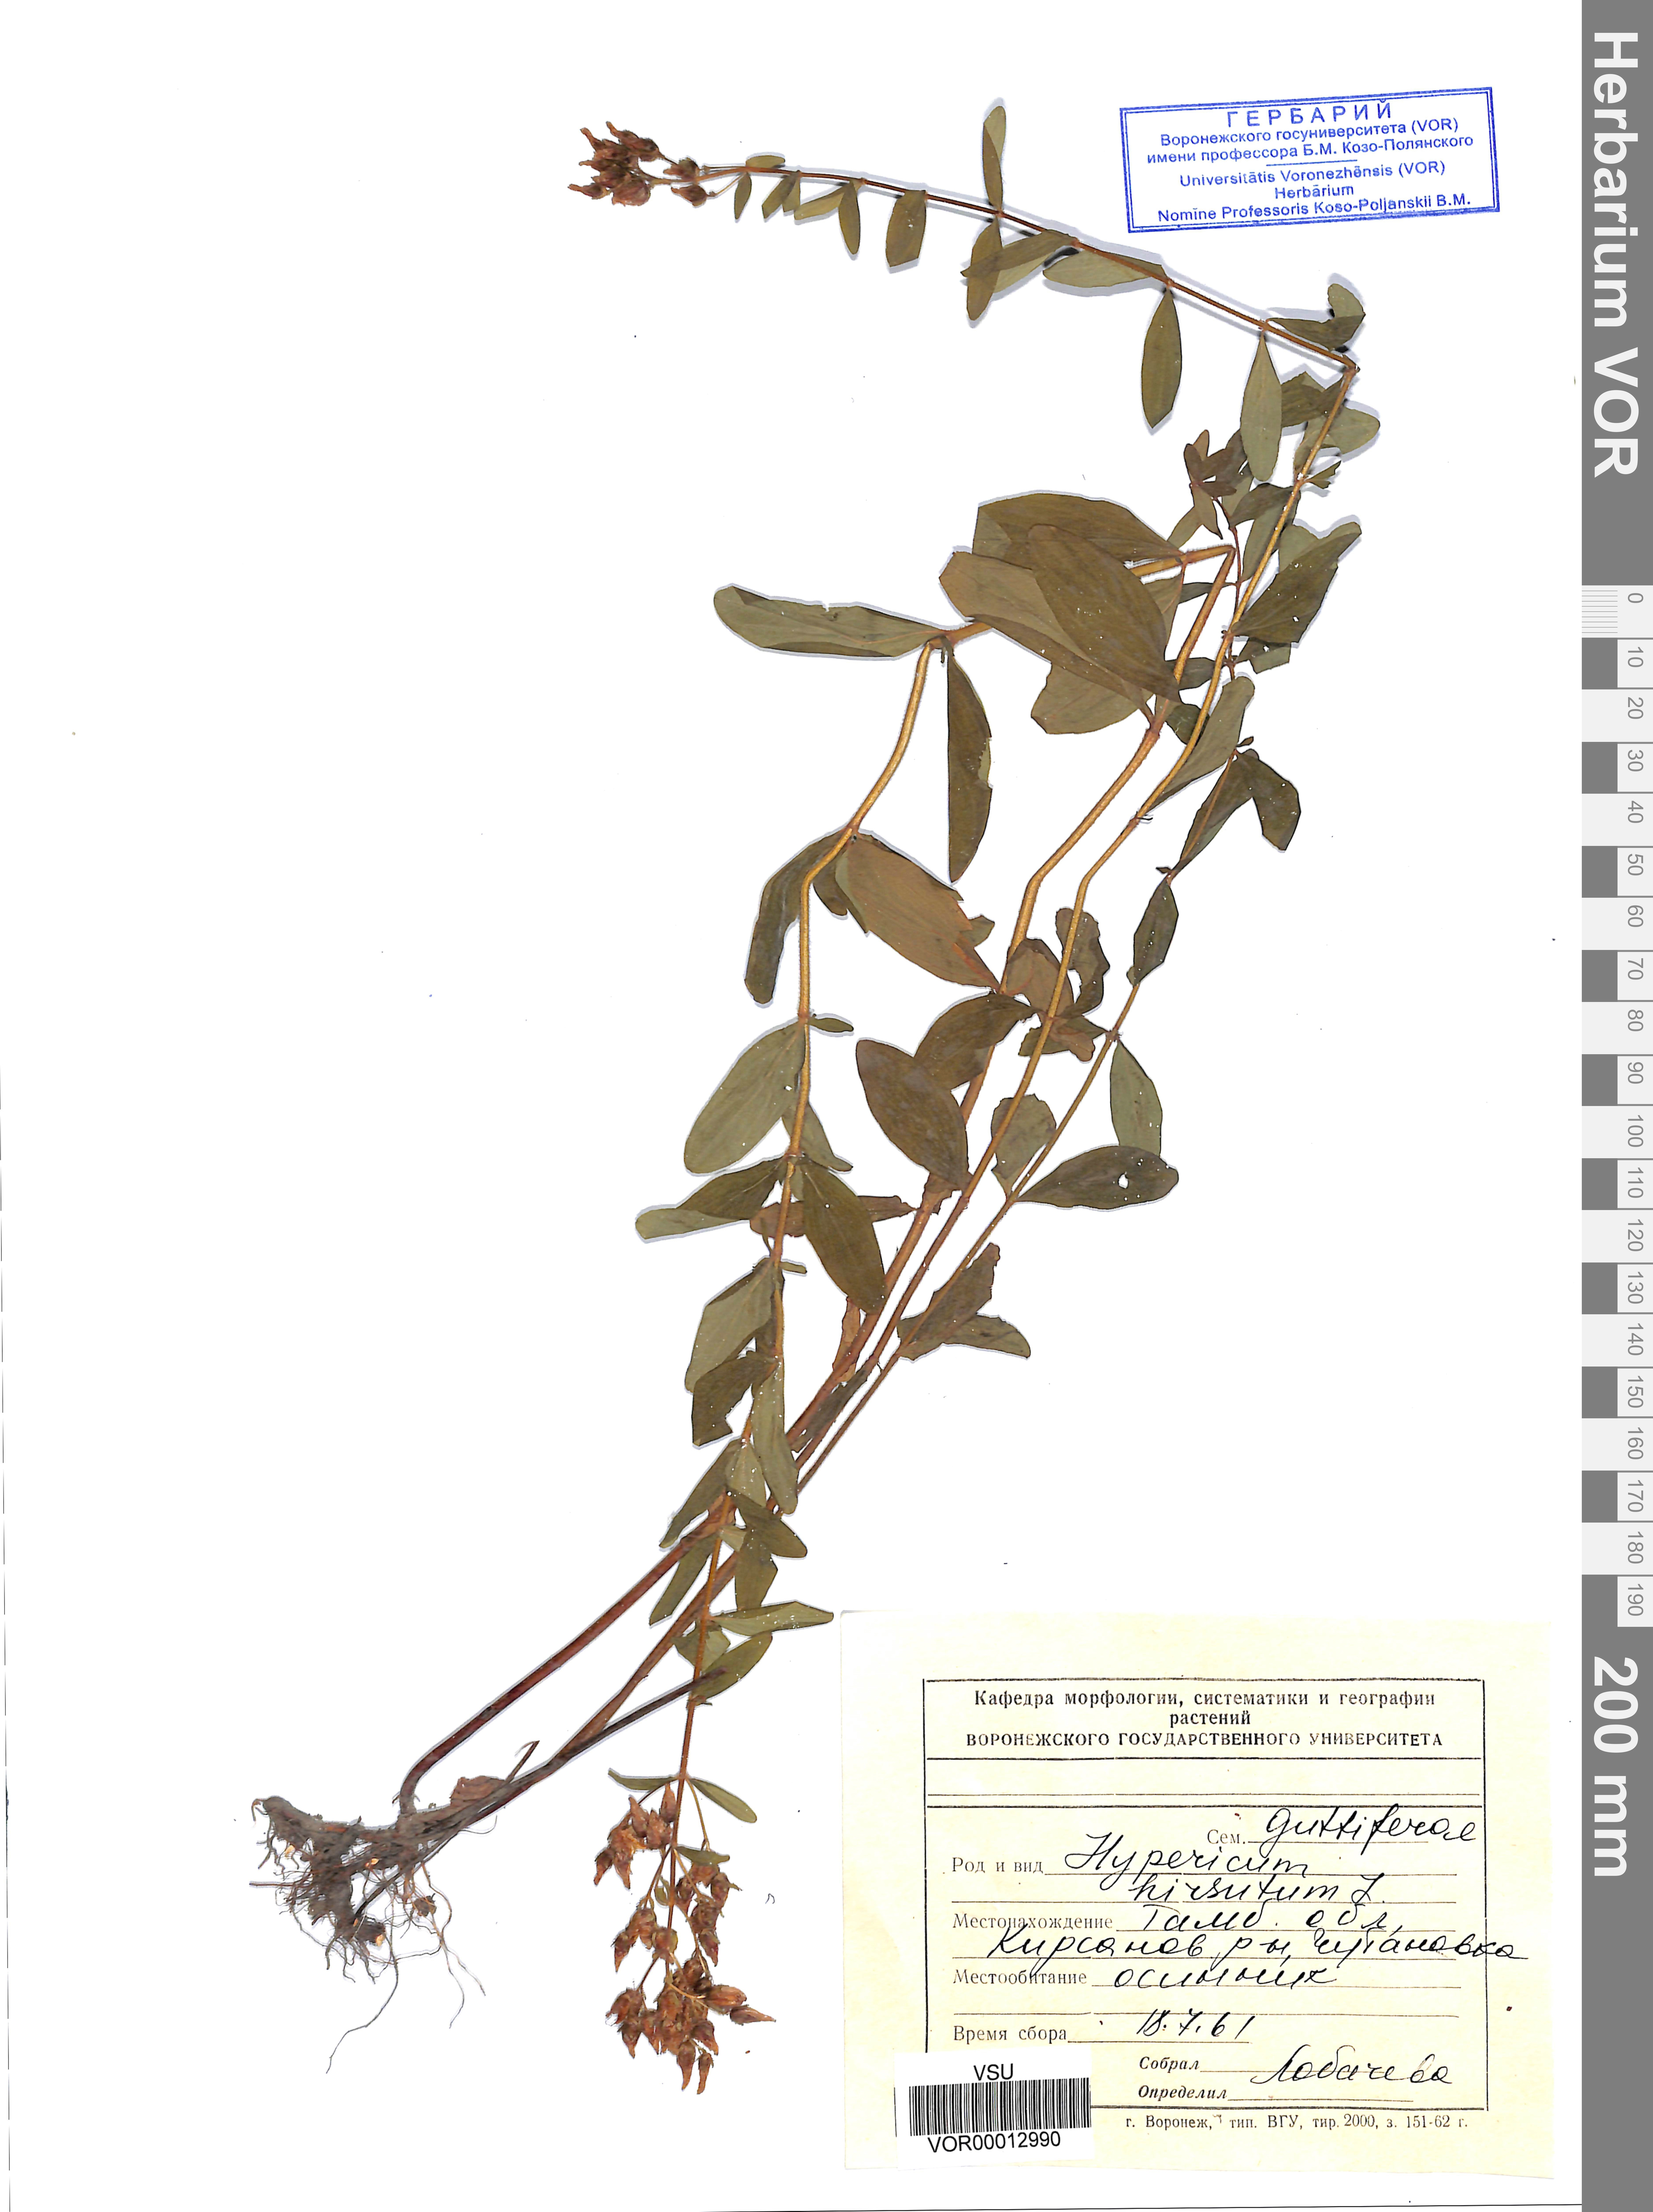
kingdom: Plantae
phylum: Tracheophyta
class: Magnoliopsida
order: Malpighiales
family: Hypericaceae
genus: Hypericum
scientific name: Hypericum hirsutum
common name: Hairy st. john's-wort
